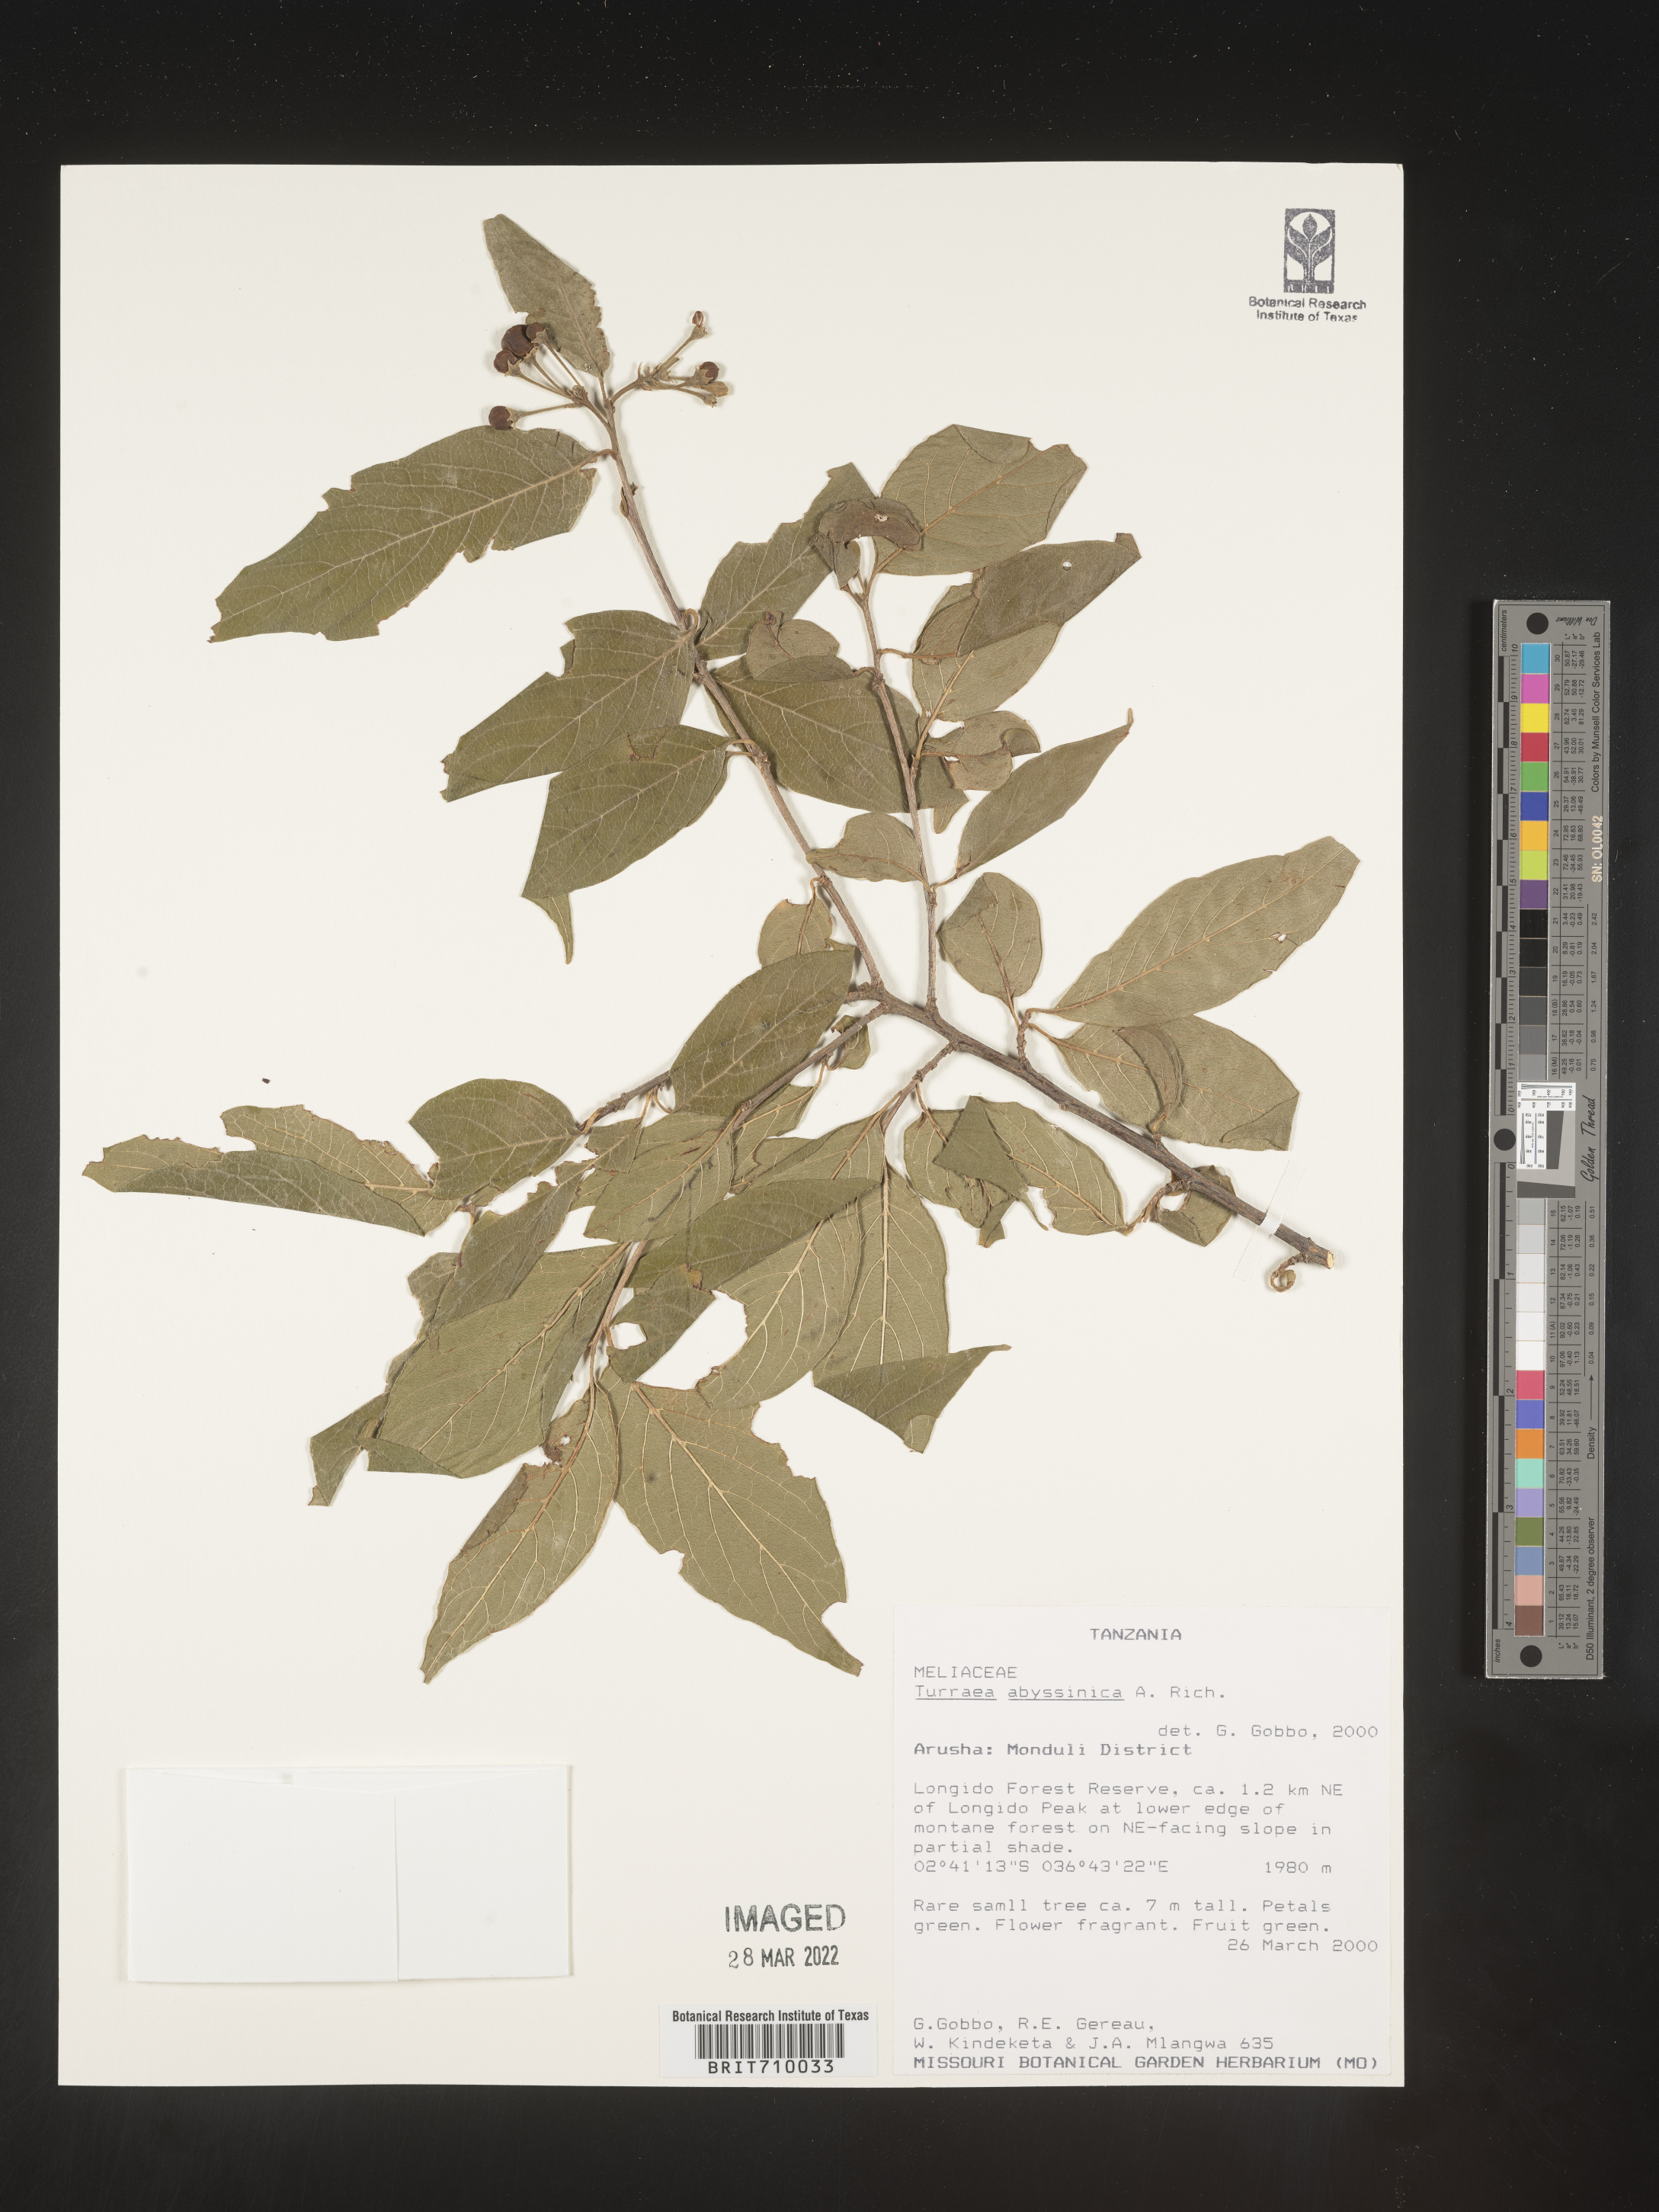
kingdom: Plantae
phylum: Tracheophyta
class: Magnoliopsida
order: Sapindales
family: Meliaceae
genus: Turraea
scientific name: Turraea
